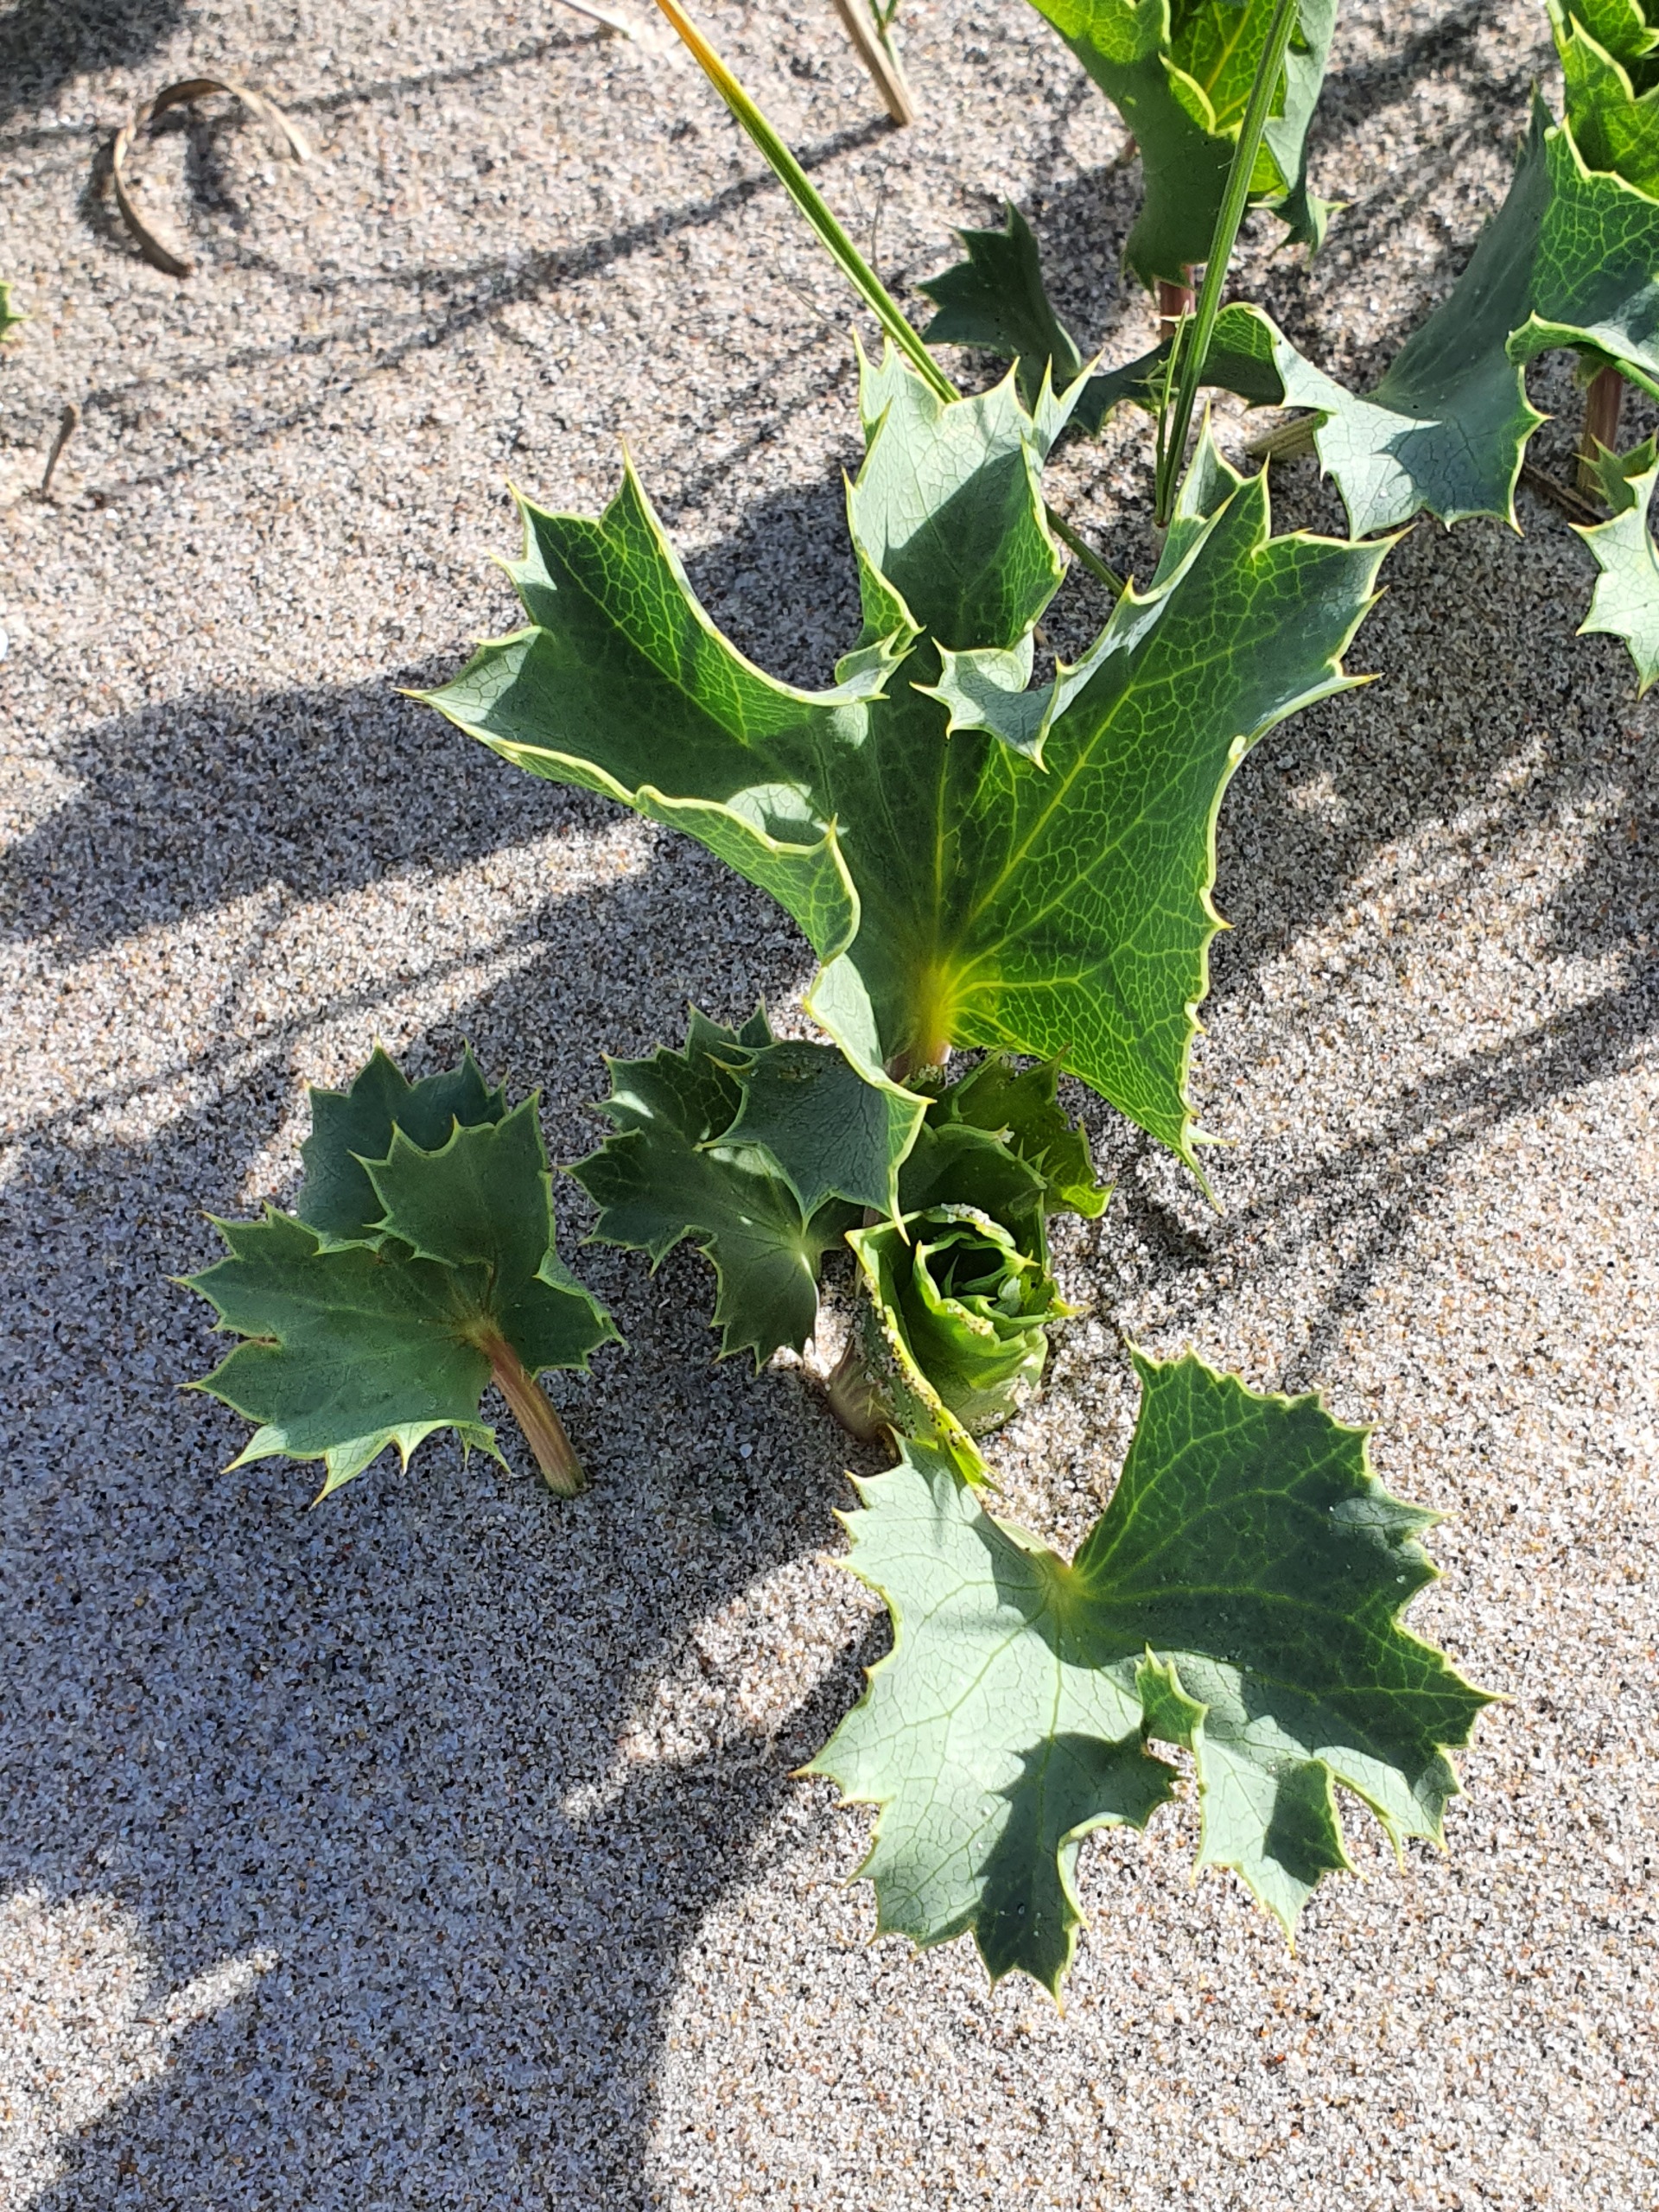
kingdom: Plantae
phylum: Tracheophyta
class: Magnoliopsida
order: Apiales
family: Apiaceae
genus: Eryngium
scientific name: Eryngium maritimum
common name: Strand-mandstro
